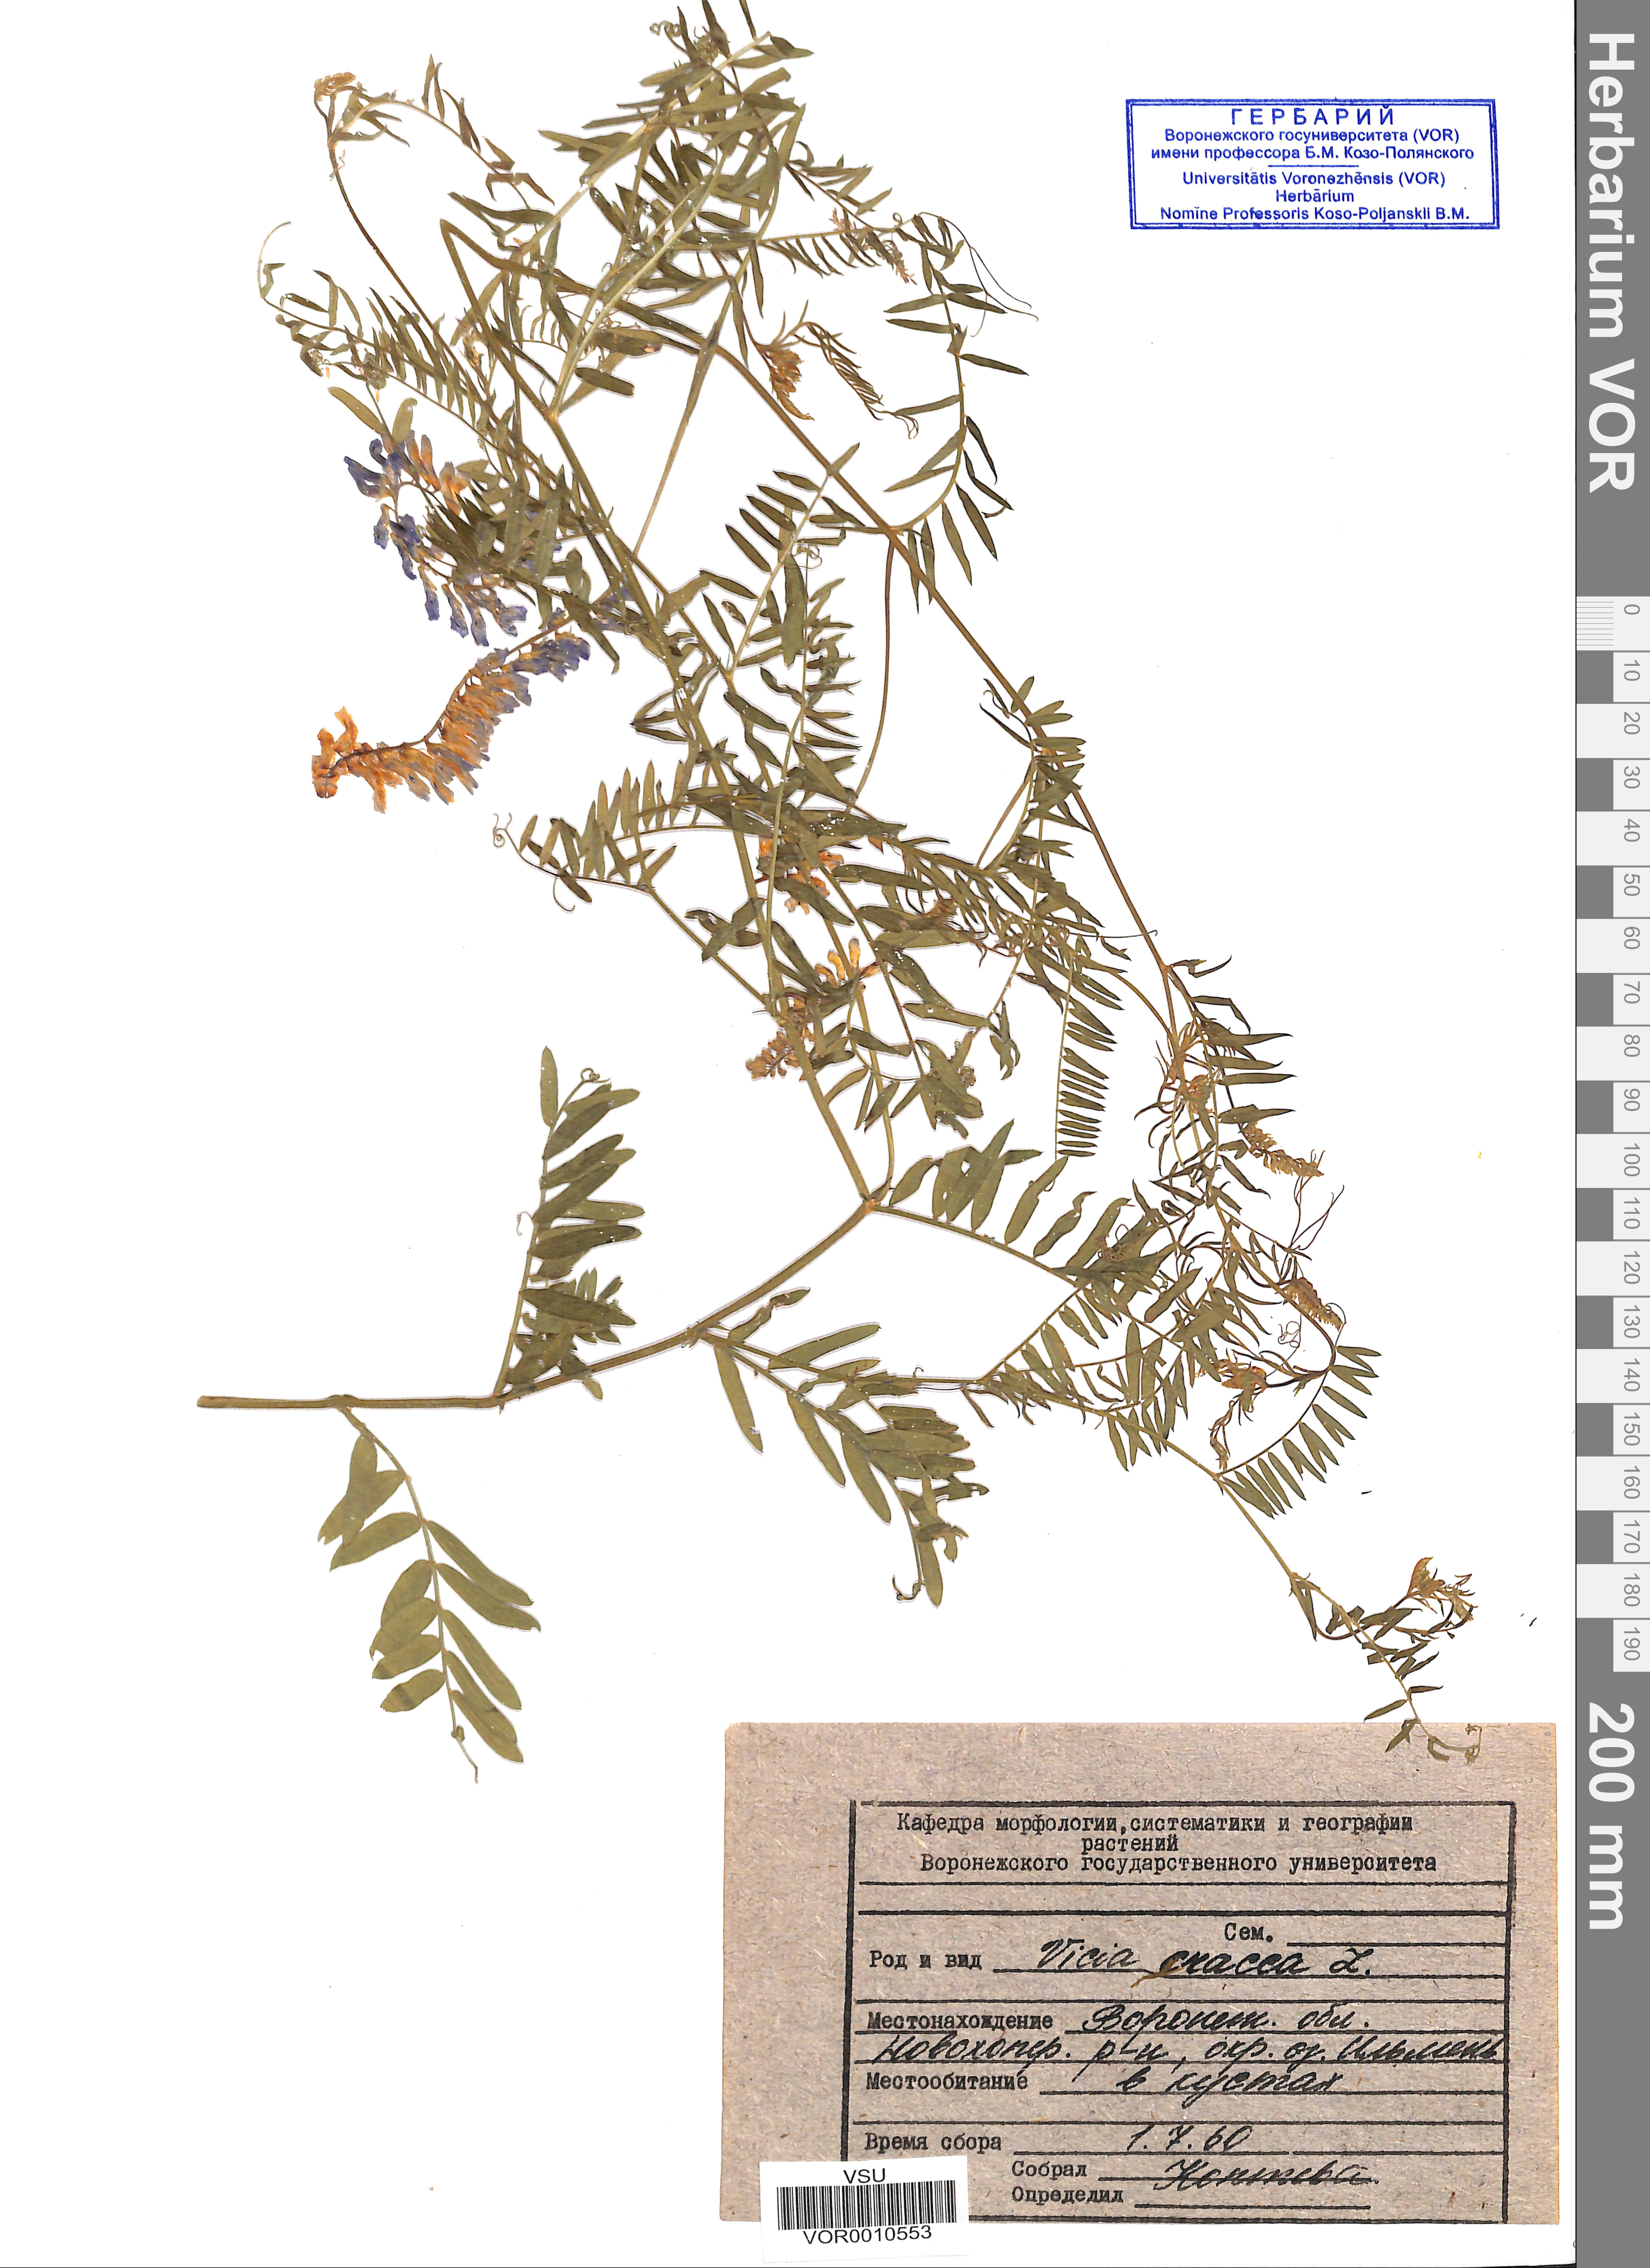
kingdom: Plantae
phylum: Tracheophyta
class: Magnoliopsida
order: Fabales
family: Fabaceae
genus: Vicia
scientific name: Vicia cracca
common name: Bird vetch
